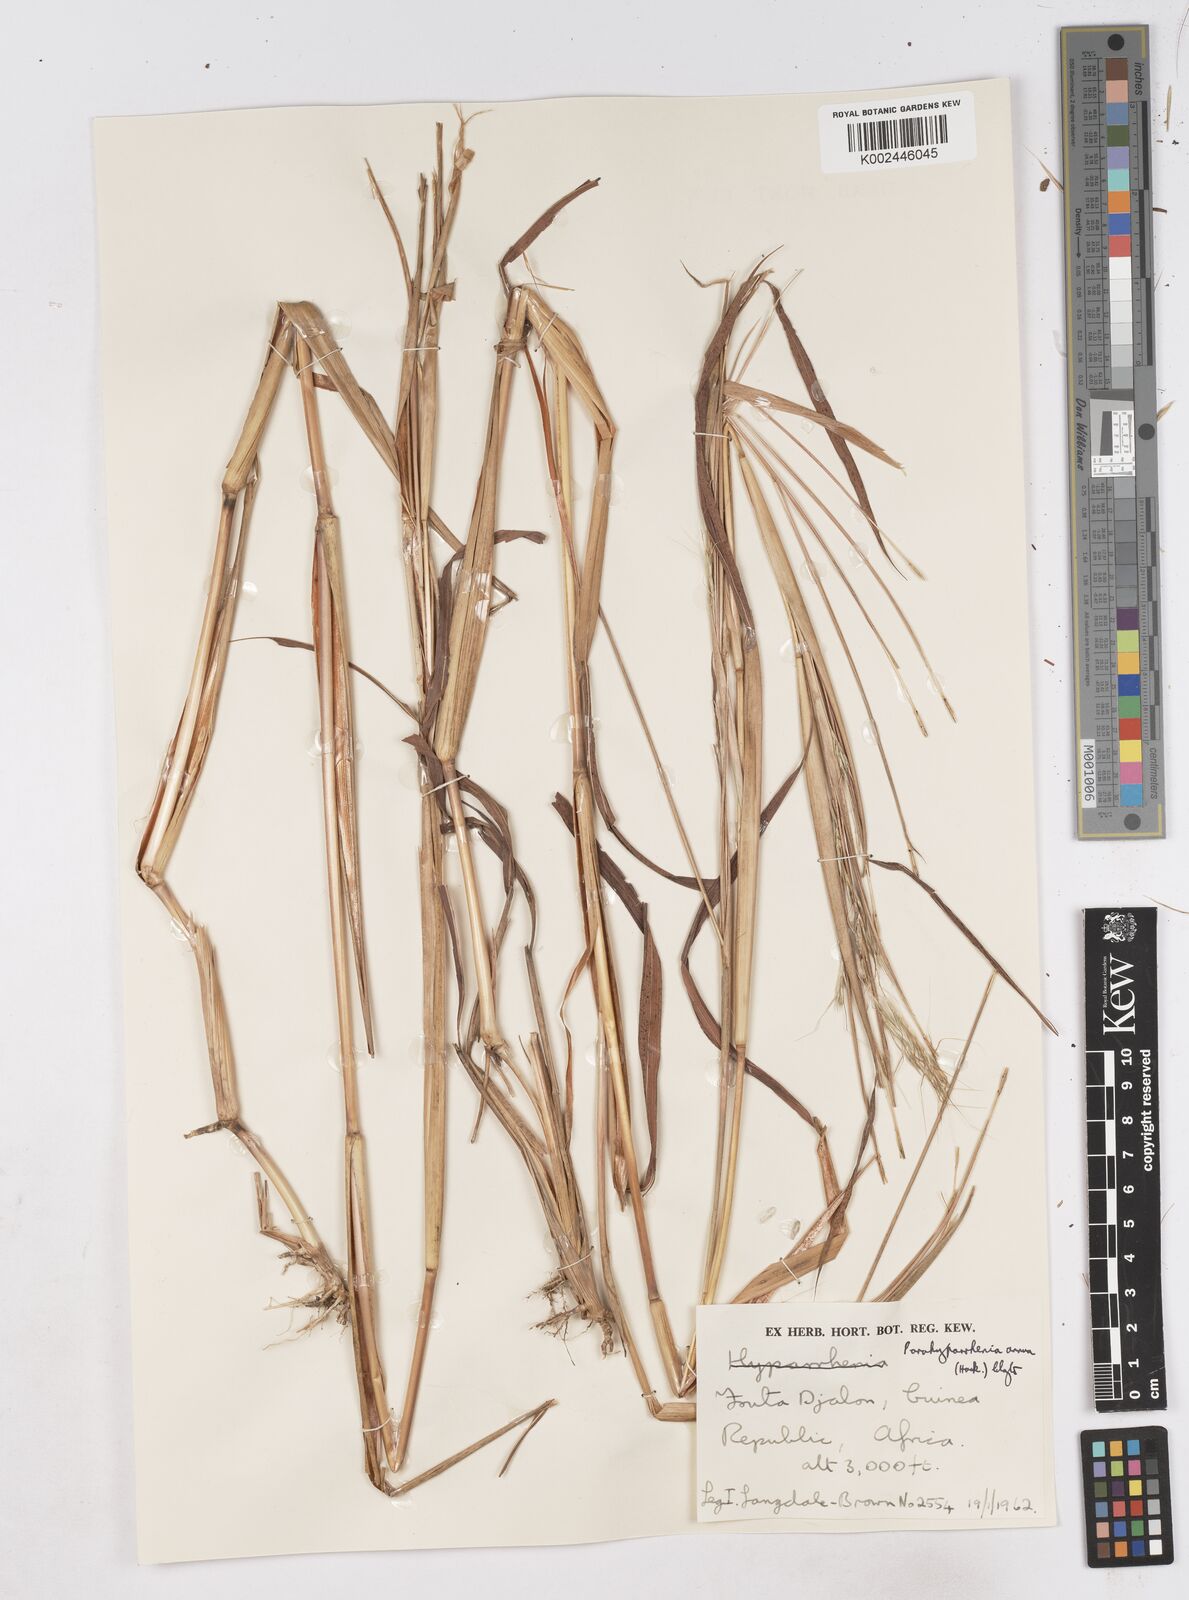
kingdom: Plantae
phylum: Tracheophyta
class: Liliopsida
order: Poales
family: Poaceae
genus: Parahyparrhenia
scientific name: Parahyparrhenia annua
